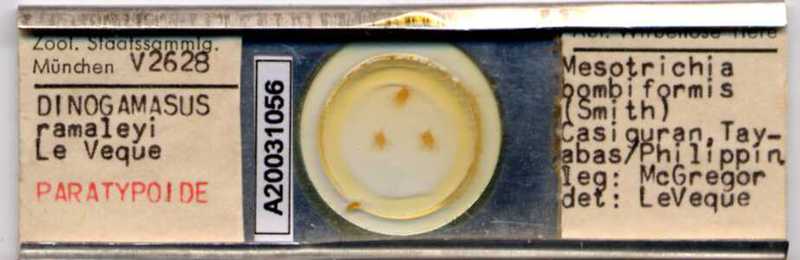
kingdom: Animalia
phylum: Arthropoda
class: Arachnida
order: Mesostigmata
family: Laelapidae
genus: Dinogamasus
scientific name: Dinogamasus
